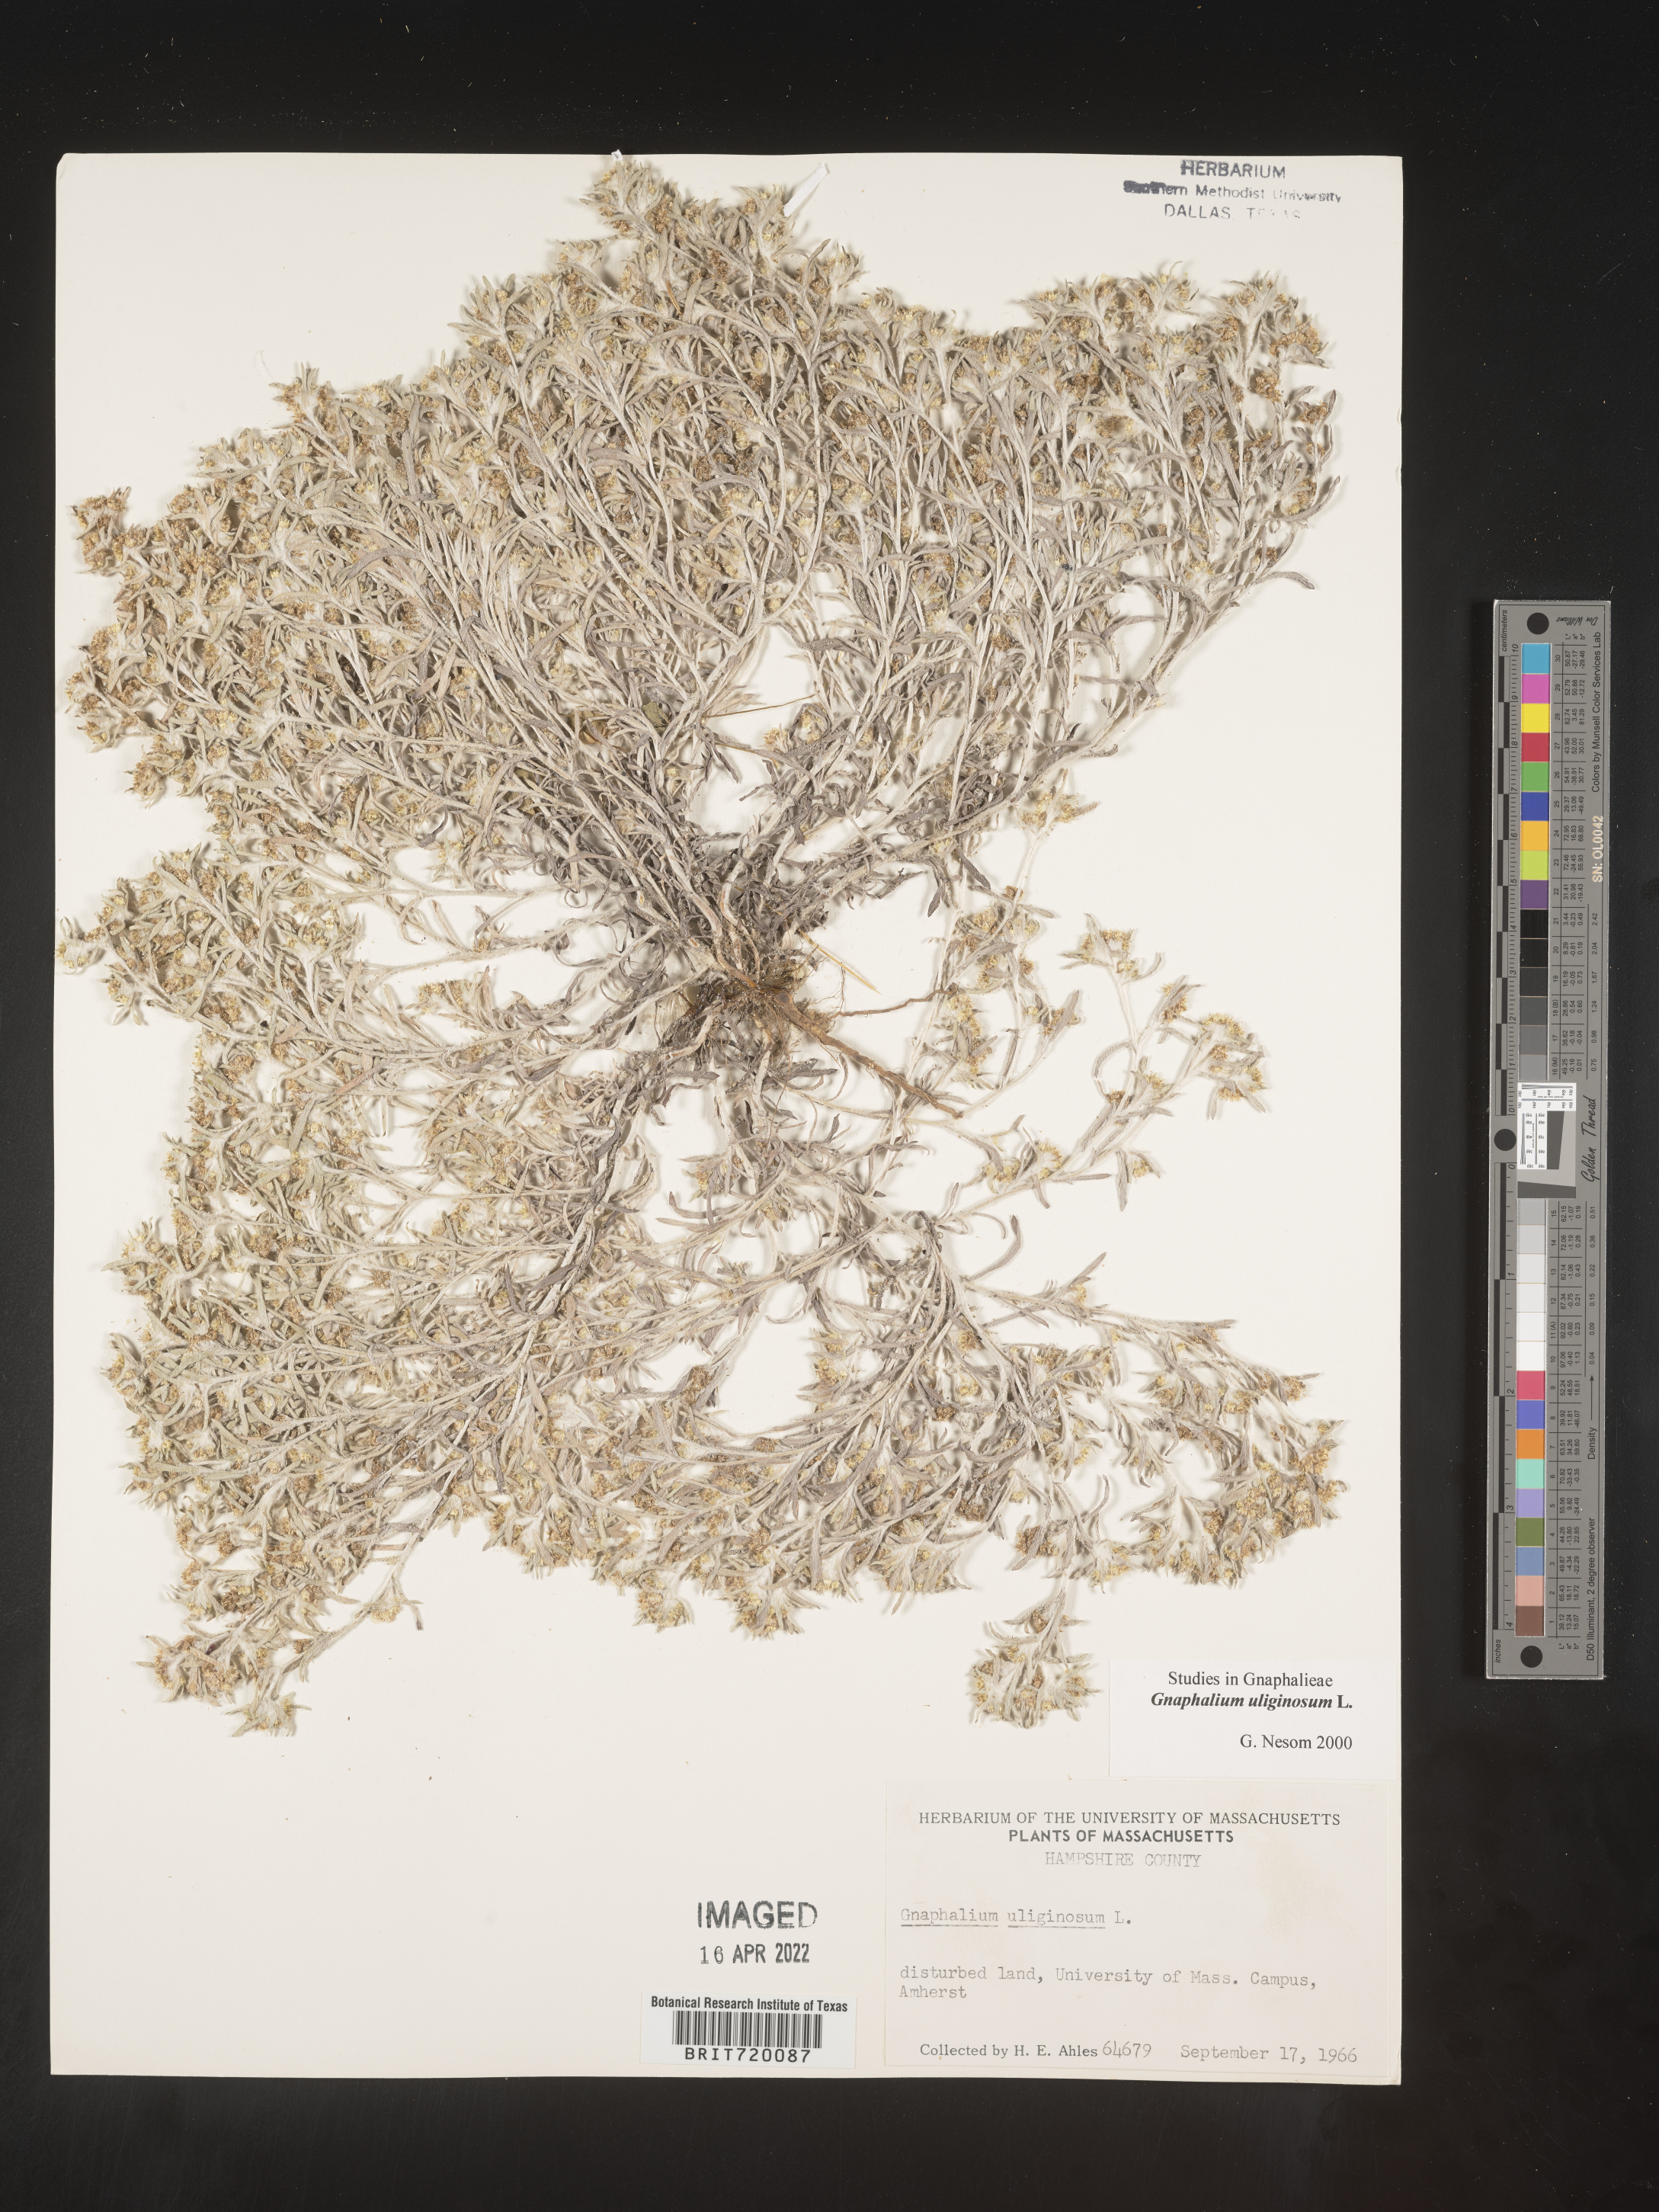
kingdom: Plantae
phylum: Tracheophyta
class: Magnoliopsida
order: Asterales
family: Asteraceae
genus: Gnaphalium
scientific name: Gnaphalium uliginosum
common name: Marsh cudweed
